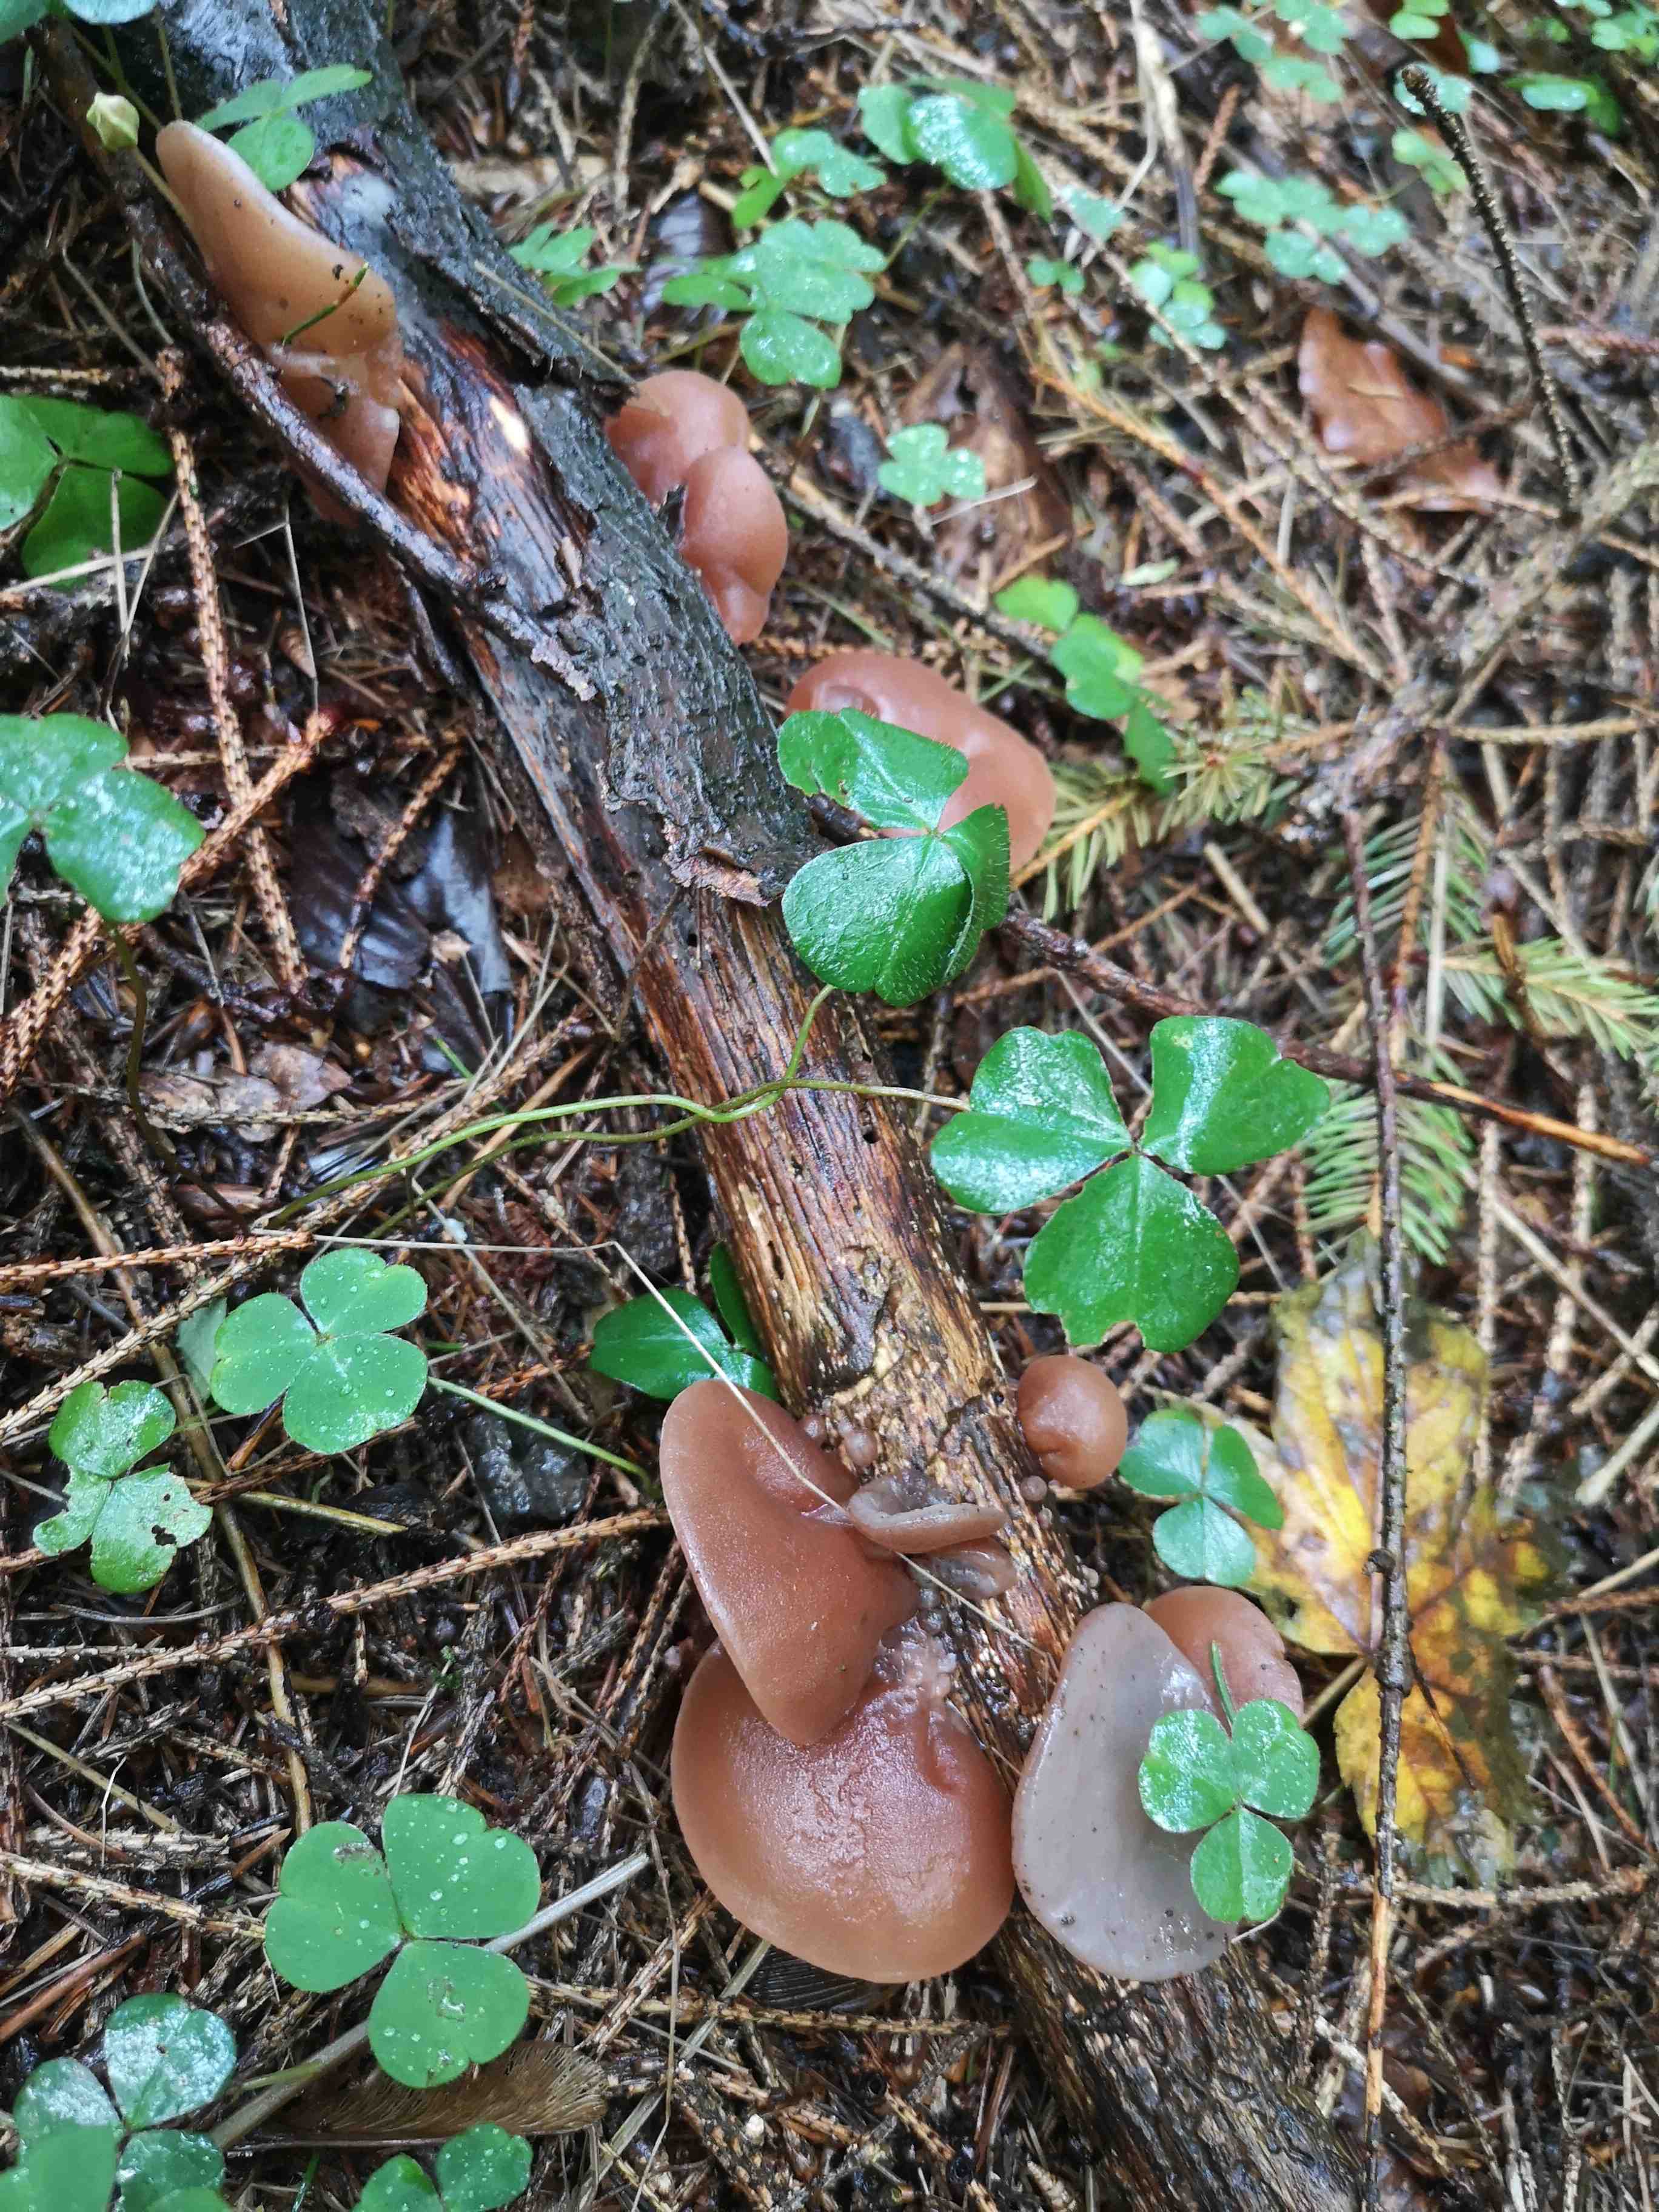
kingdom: Fungi
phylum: Basidiomycota
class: Agaricomycetes
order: Auriculariales
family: Auriculariaceae
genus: Auricularia
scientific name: Auricularia auricula-judae
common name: almindelig judasøre
